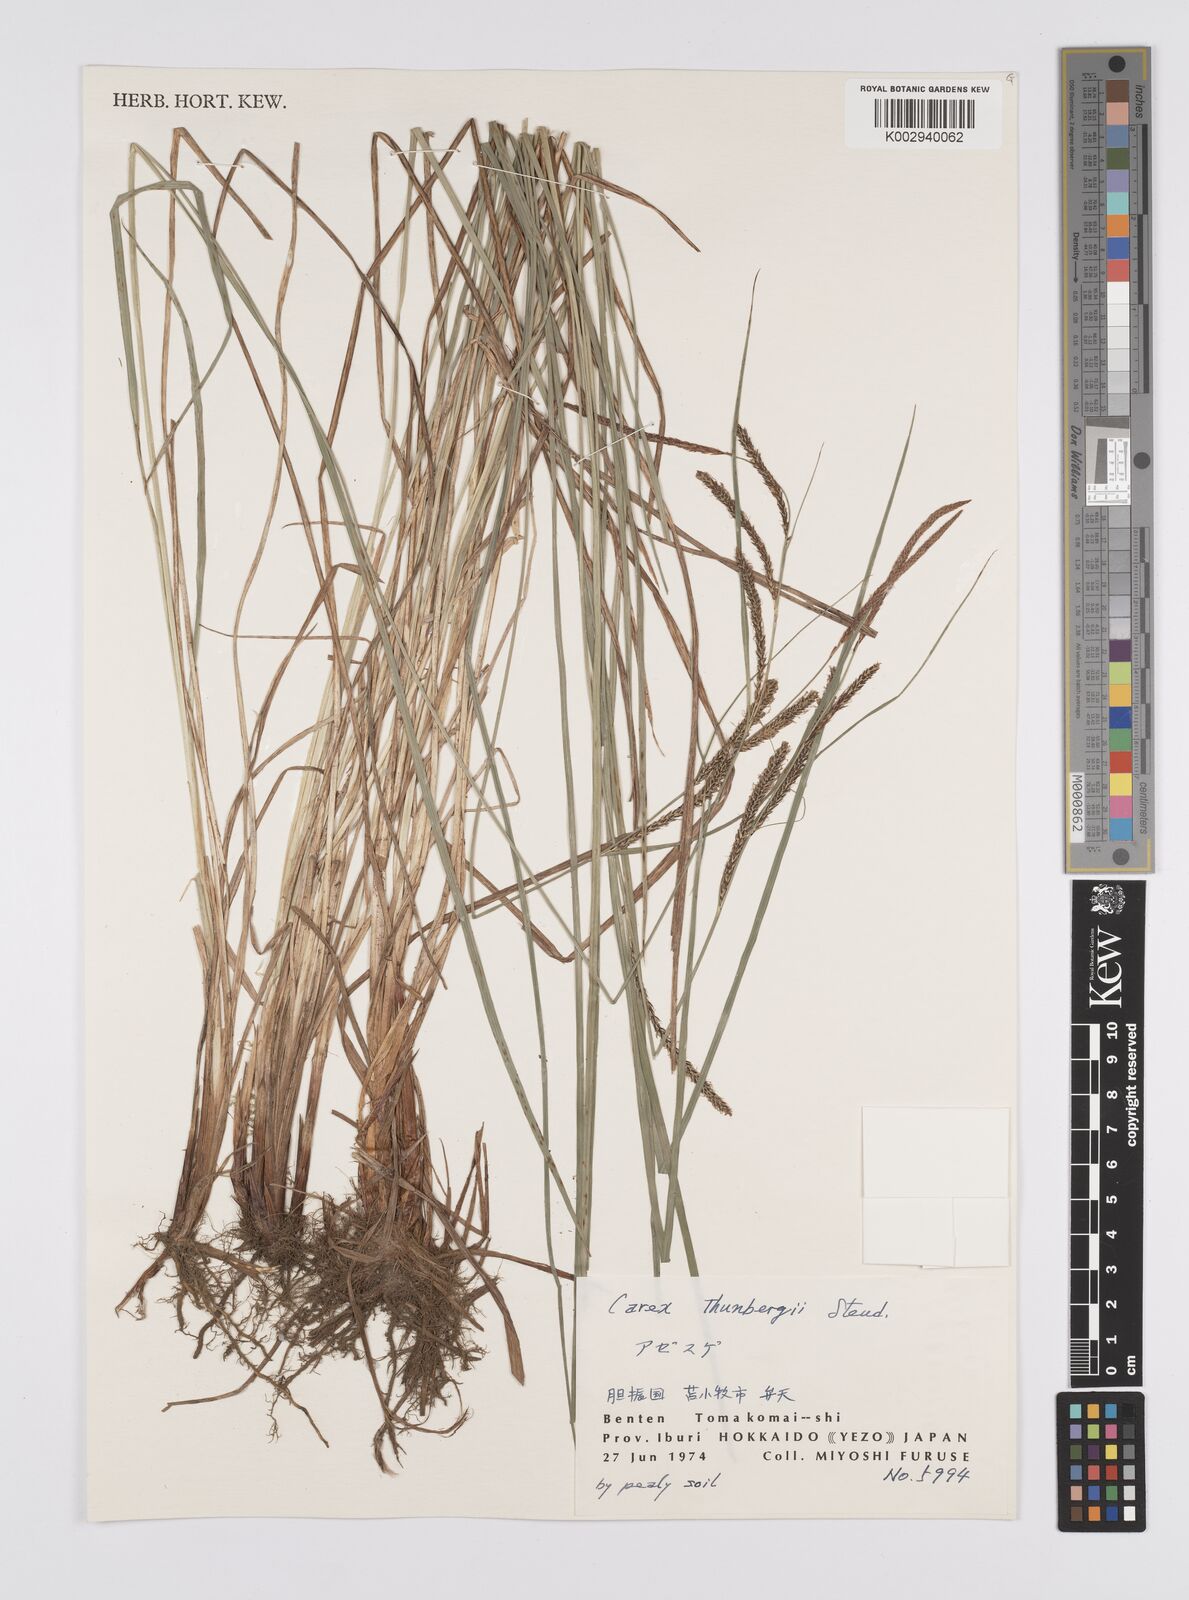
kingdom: Plantae
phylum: Tracheophyta
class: Liliopsida
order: Poales
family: Cyperaceae
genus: Carex
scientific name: Carex thunbergii
